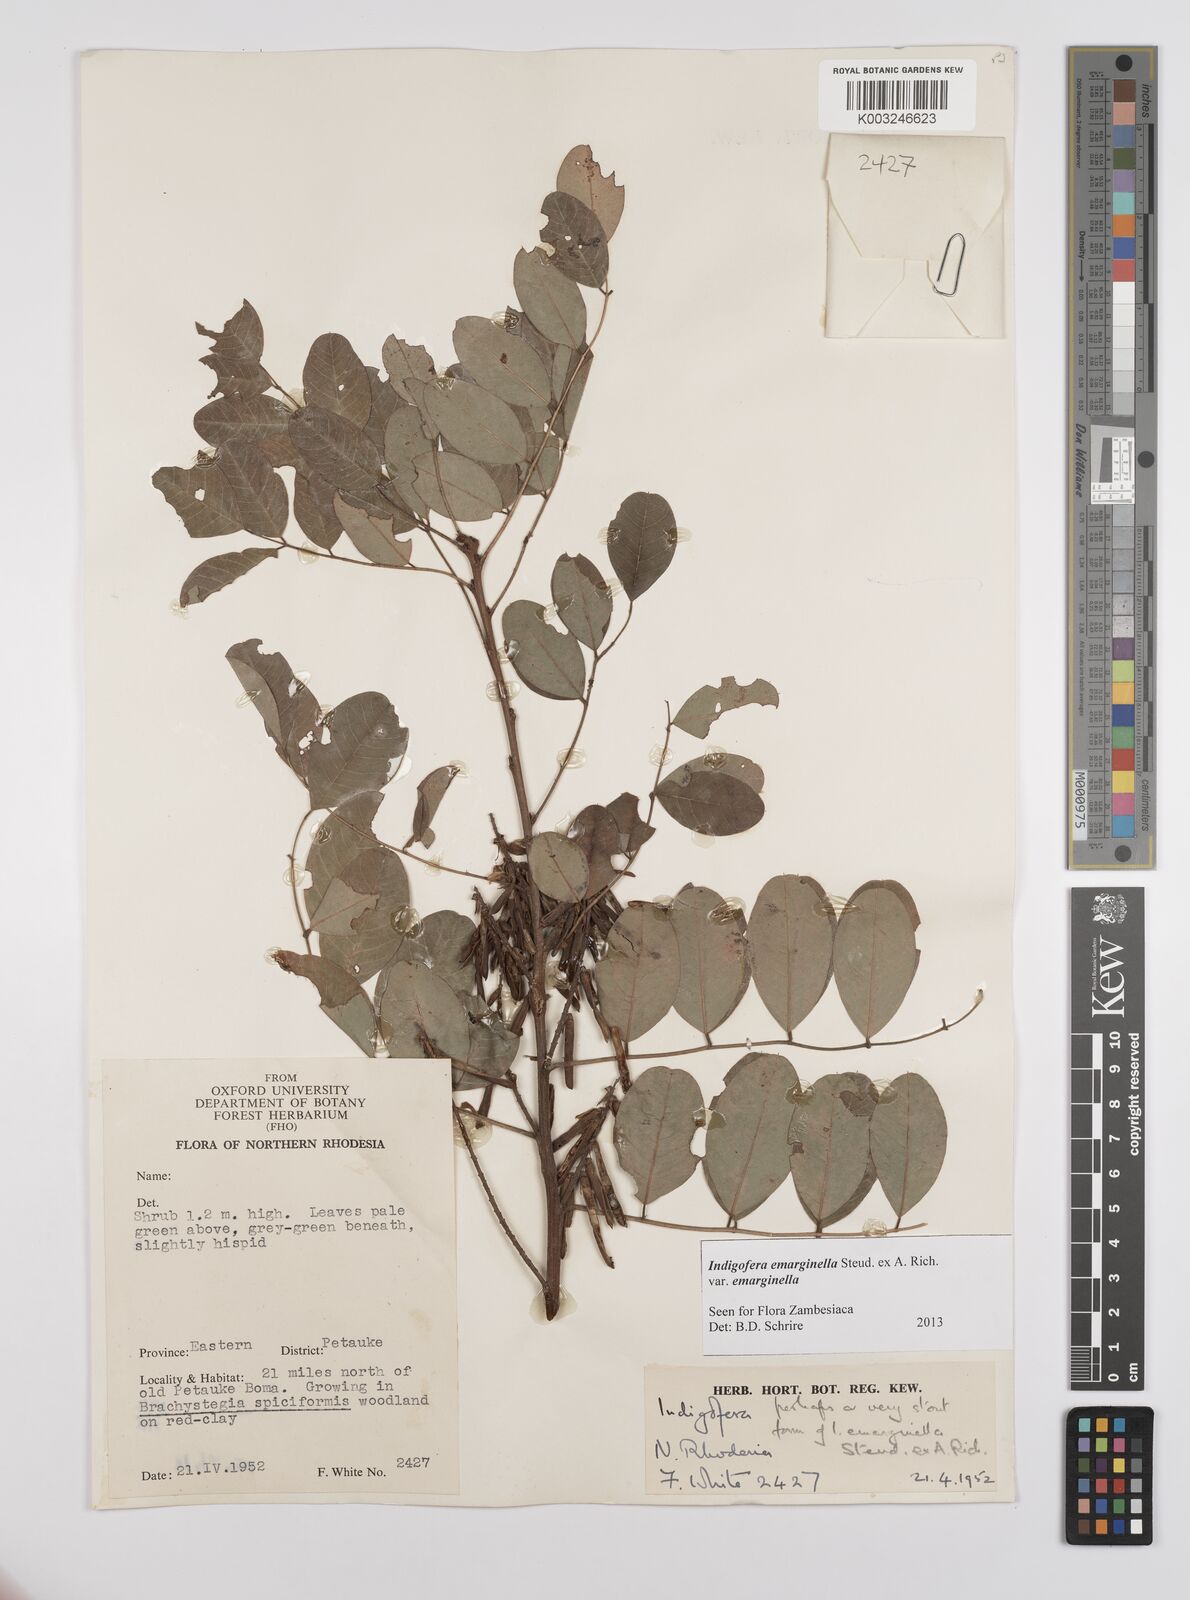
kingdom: Plantae
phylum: Tracheophyta
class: Magnoliopsida
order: Fabales
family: Fabaceae
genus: Indigofera
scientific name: Indigofera emarginella
